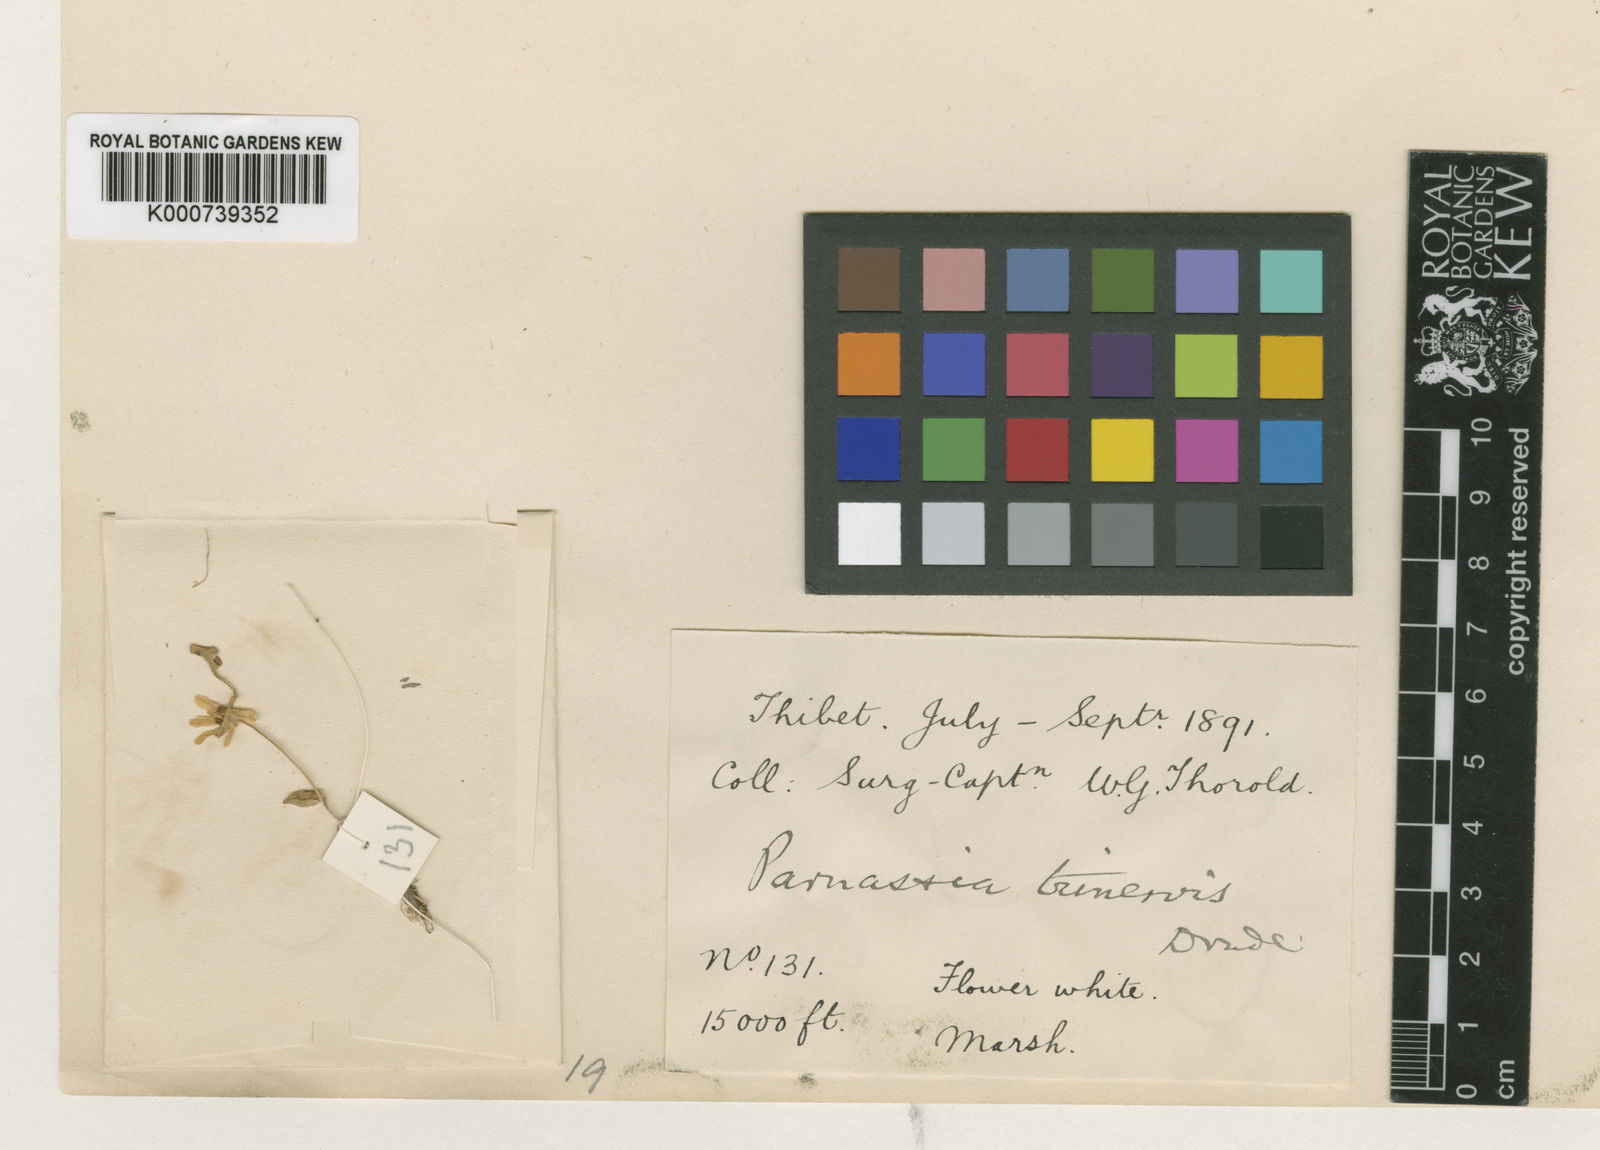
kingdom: Plantae
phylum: Tracheophyta
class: Magnoliopsida
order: Celastrales
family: Parnassiaceae
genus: Parnassia
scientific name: Parnassia trinervis
